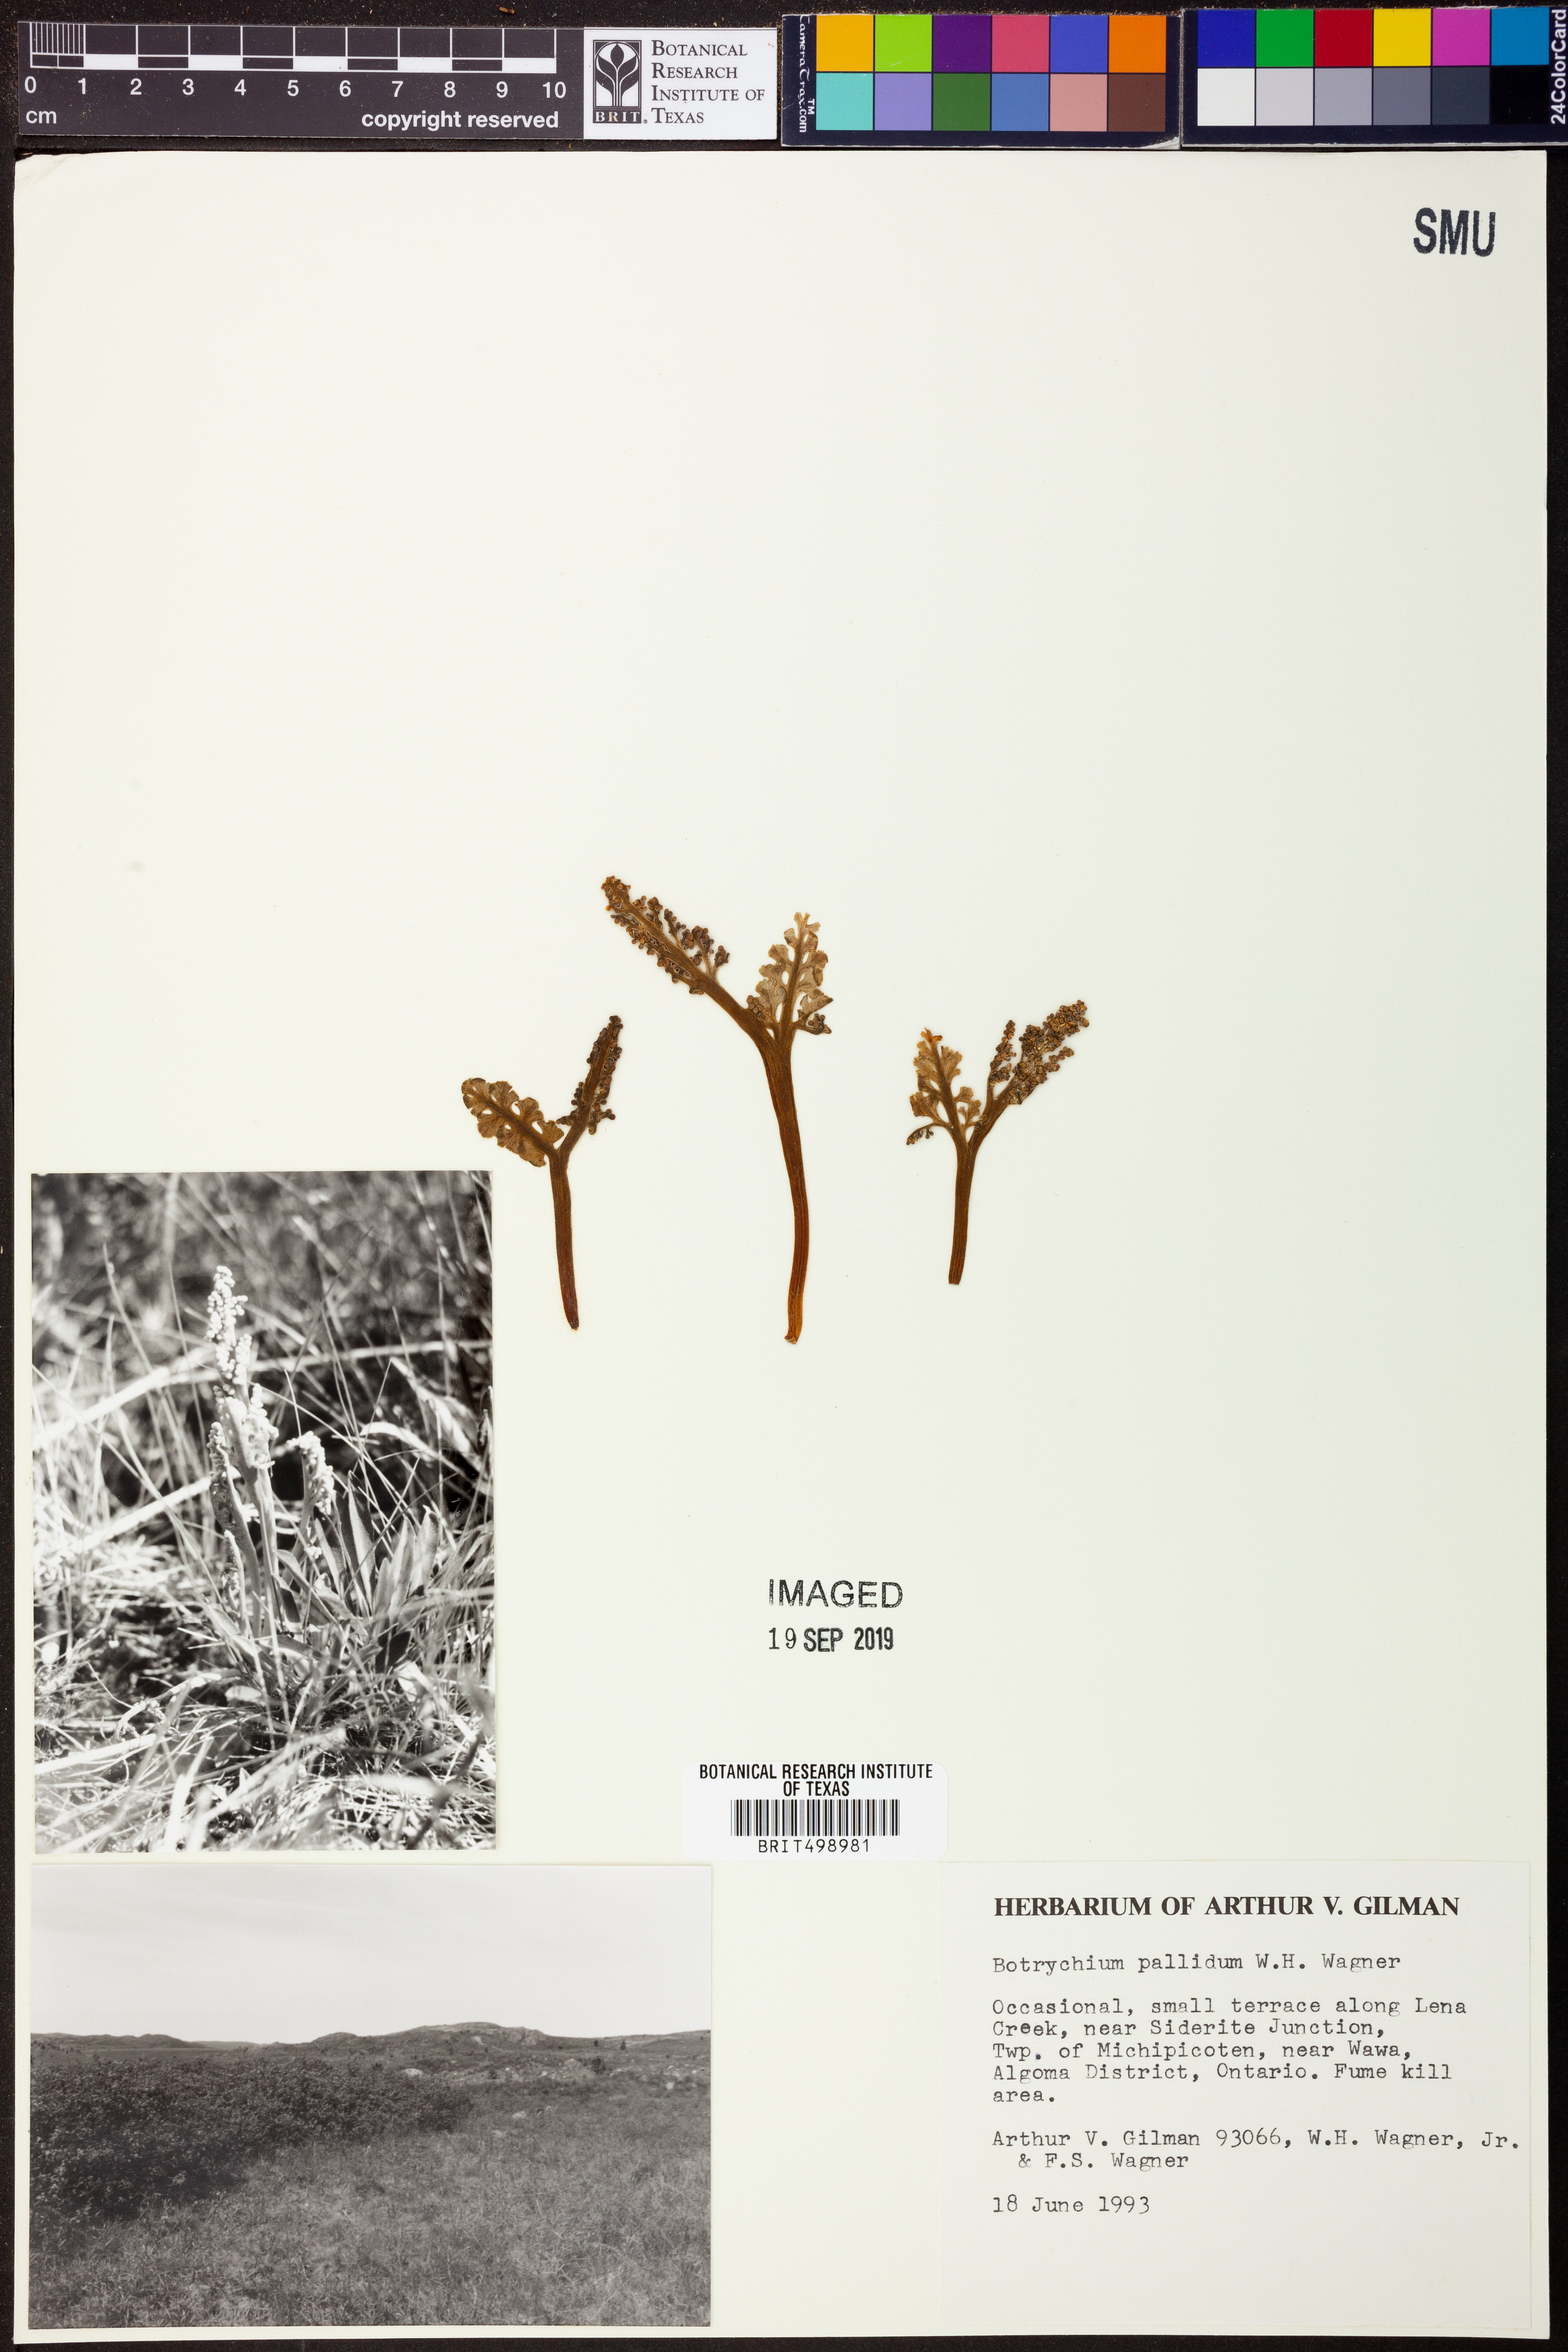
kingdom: Plantae
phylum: Tracheophyta
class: Polypodiopsida
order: Ophioglossales
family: Ophioglossaceae
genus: Botrychium
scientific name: Botrychium pallidum
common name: Pale moonwort
